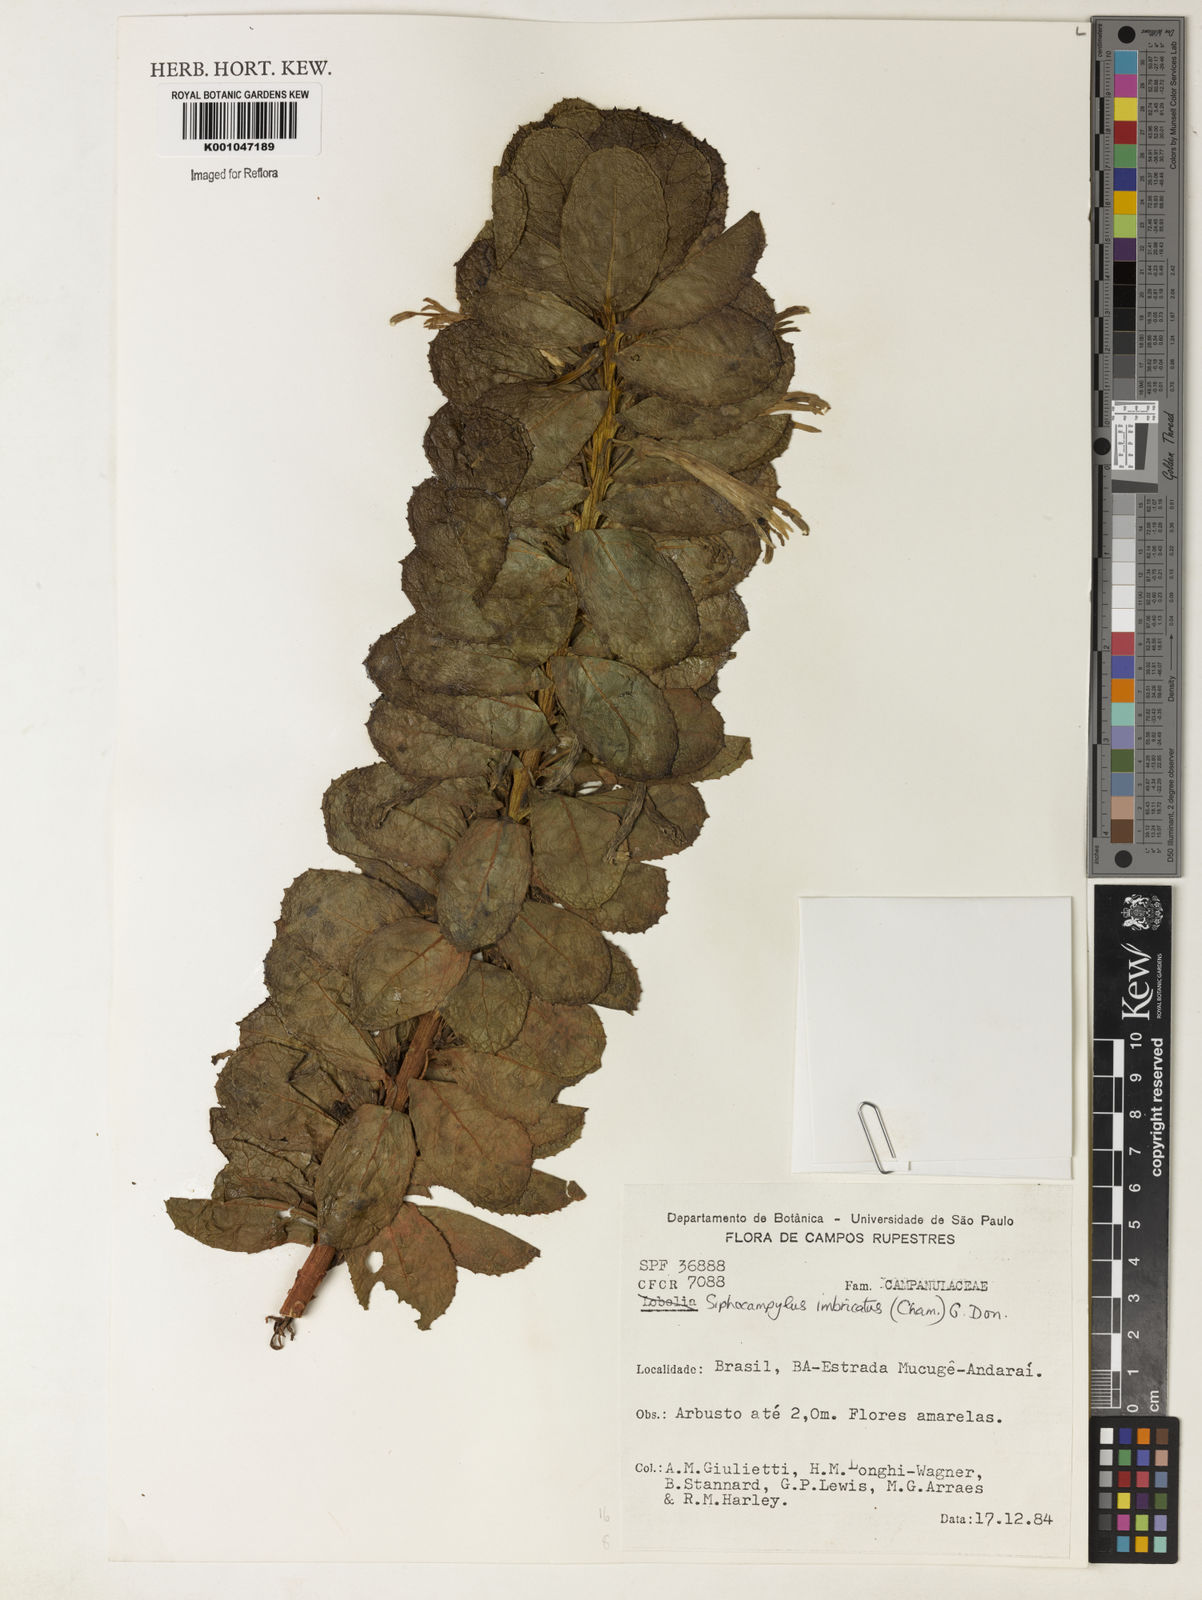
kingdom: Plantae
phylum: Tracheophyta
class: Magnoliopsida
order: Asterales
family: Campanulaceae
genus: Siphocampylus
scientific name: Siphocampylus imbricatus
